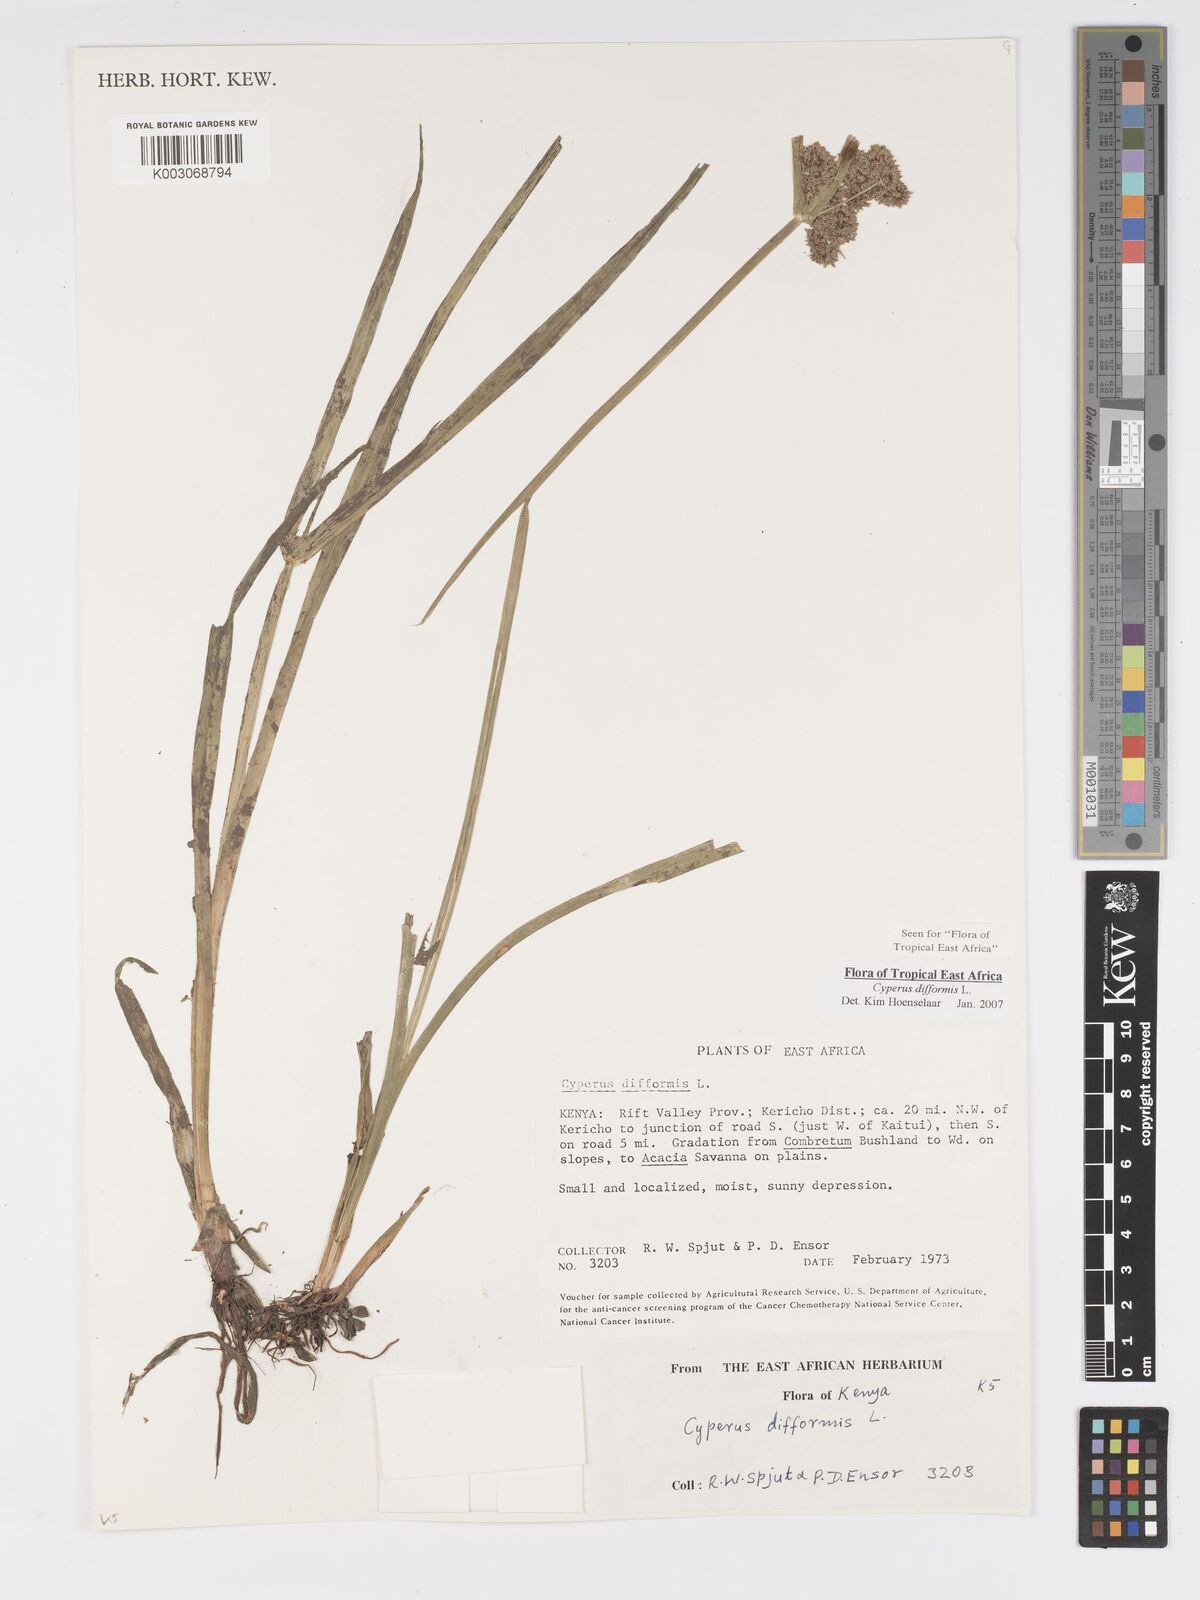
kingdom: Plantae
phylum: Tracheophyta
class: Liliopsida
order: Poales
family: Cyperaceae
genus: Cyperus
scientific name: Cyperus difformis
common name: Variable flatsedge
